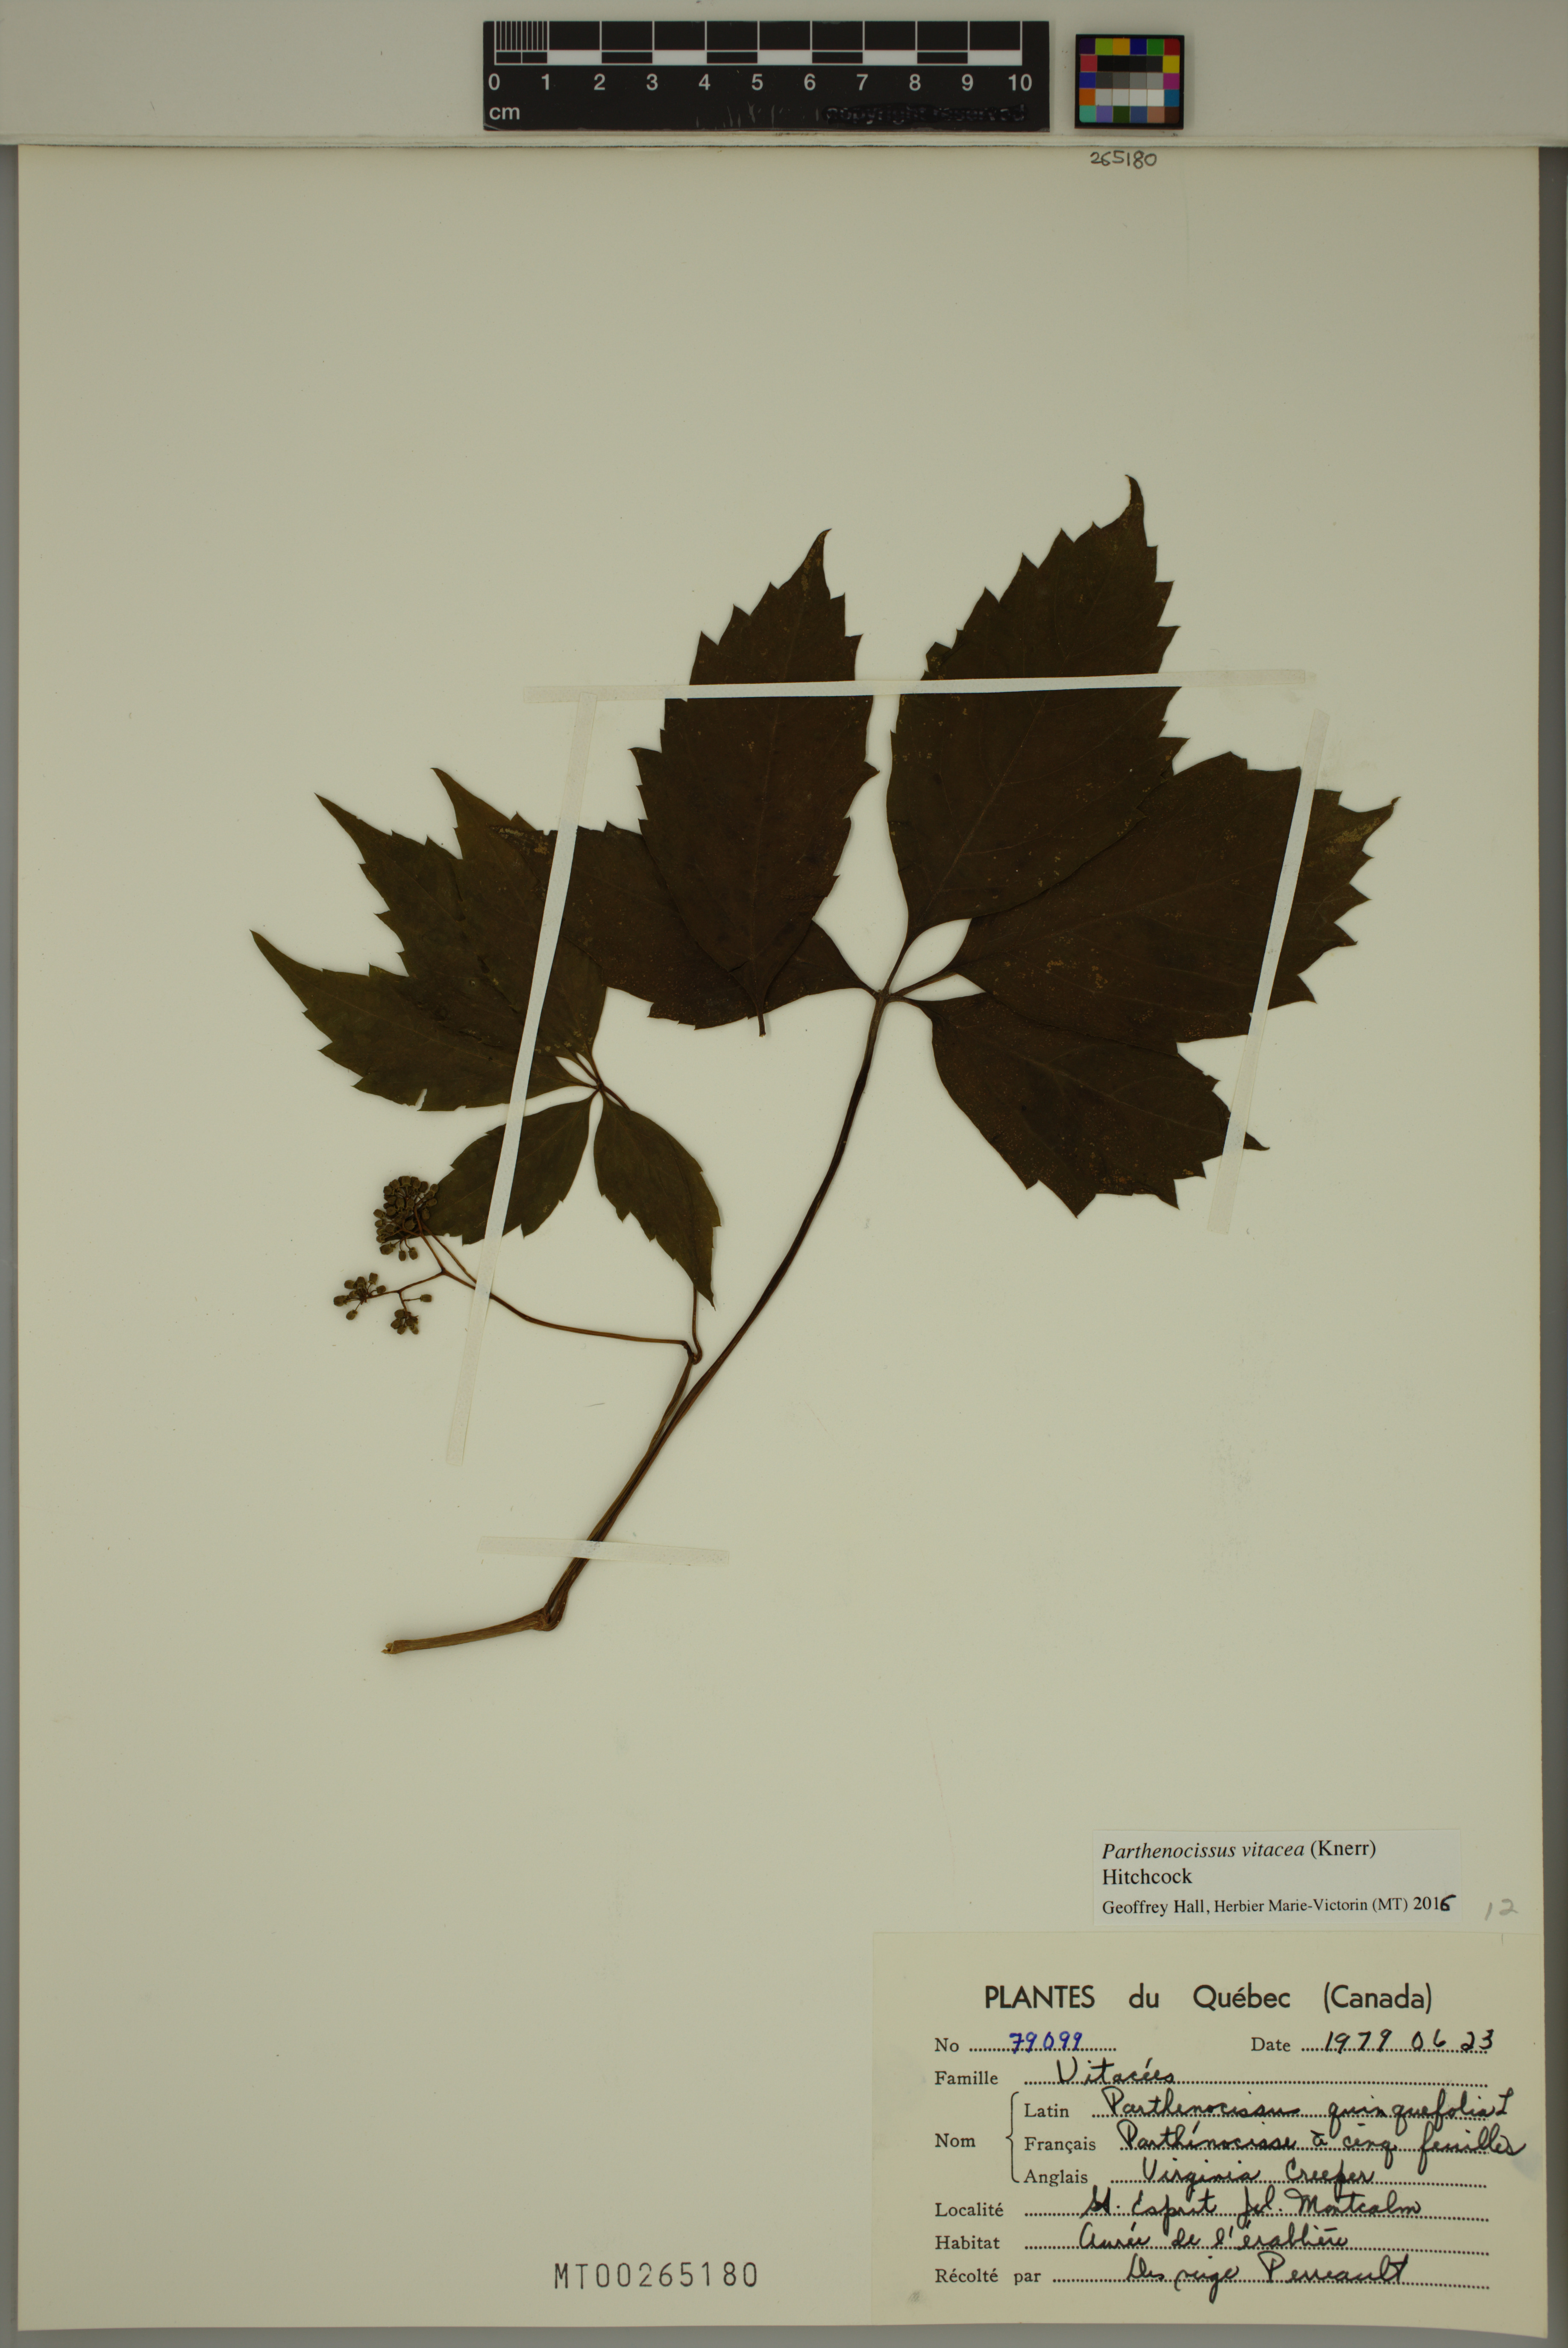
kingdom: Plantae
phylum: Tracheophyta
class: Magnoliopsida
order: Vitales
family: Vitaceae
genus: Parthenocissus
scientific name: Parthenocissus inserta
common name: False virginia-creeper
